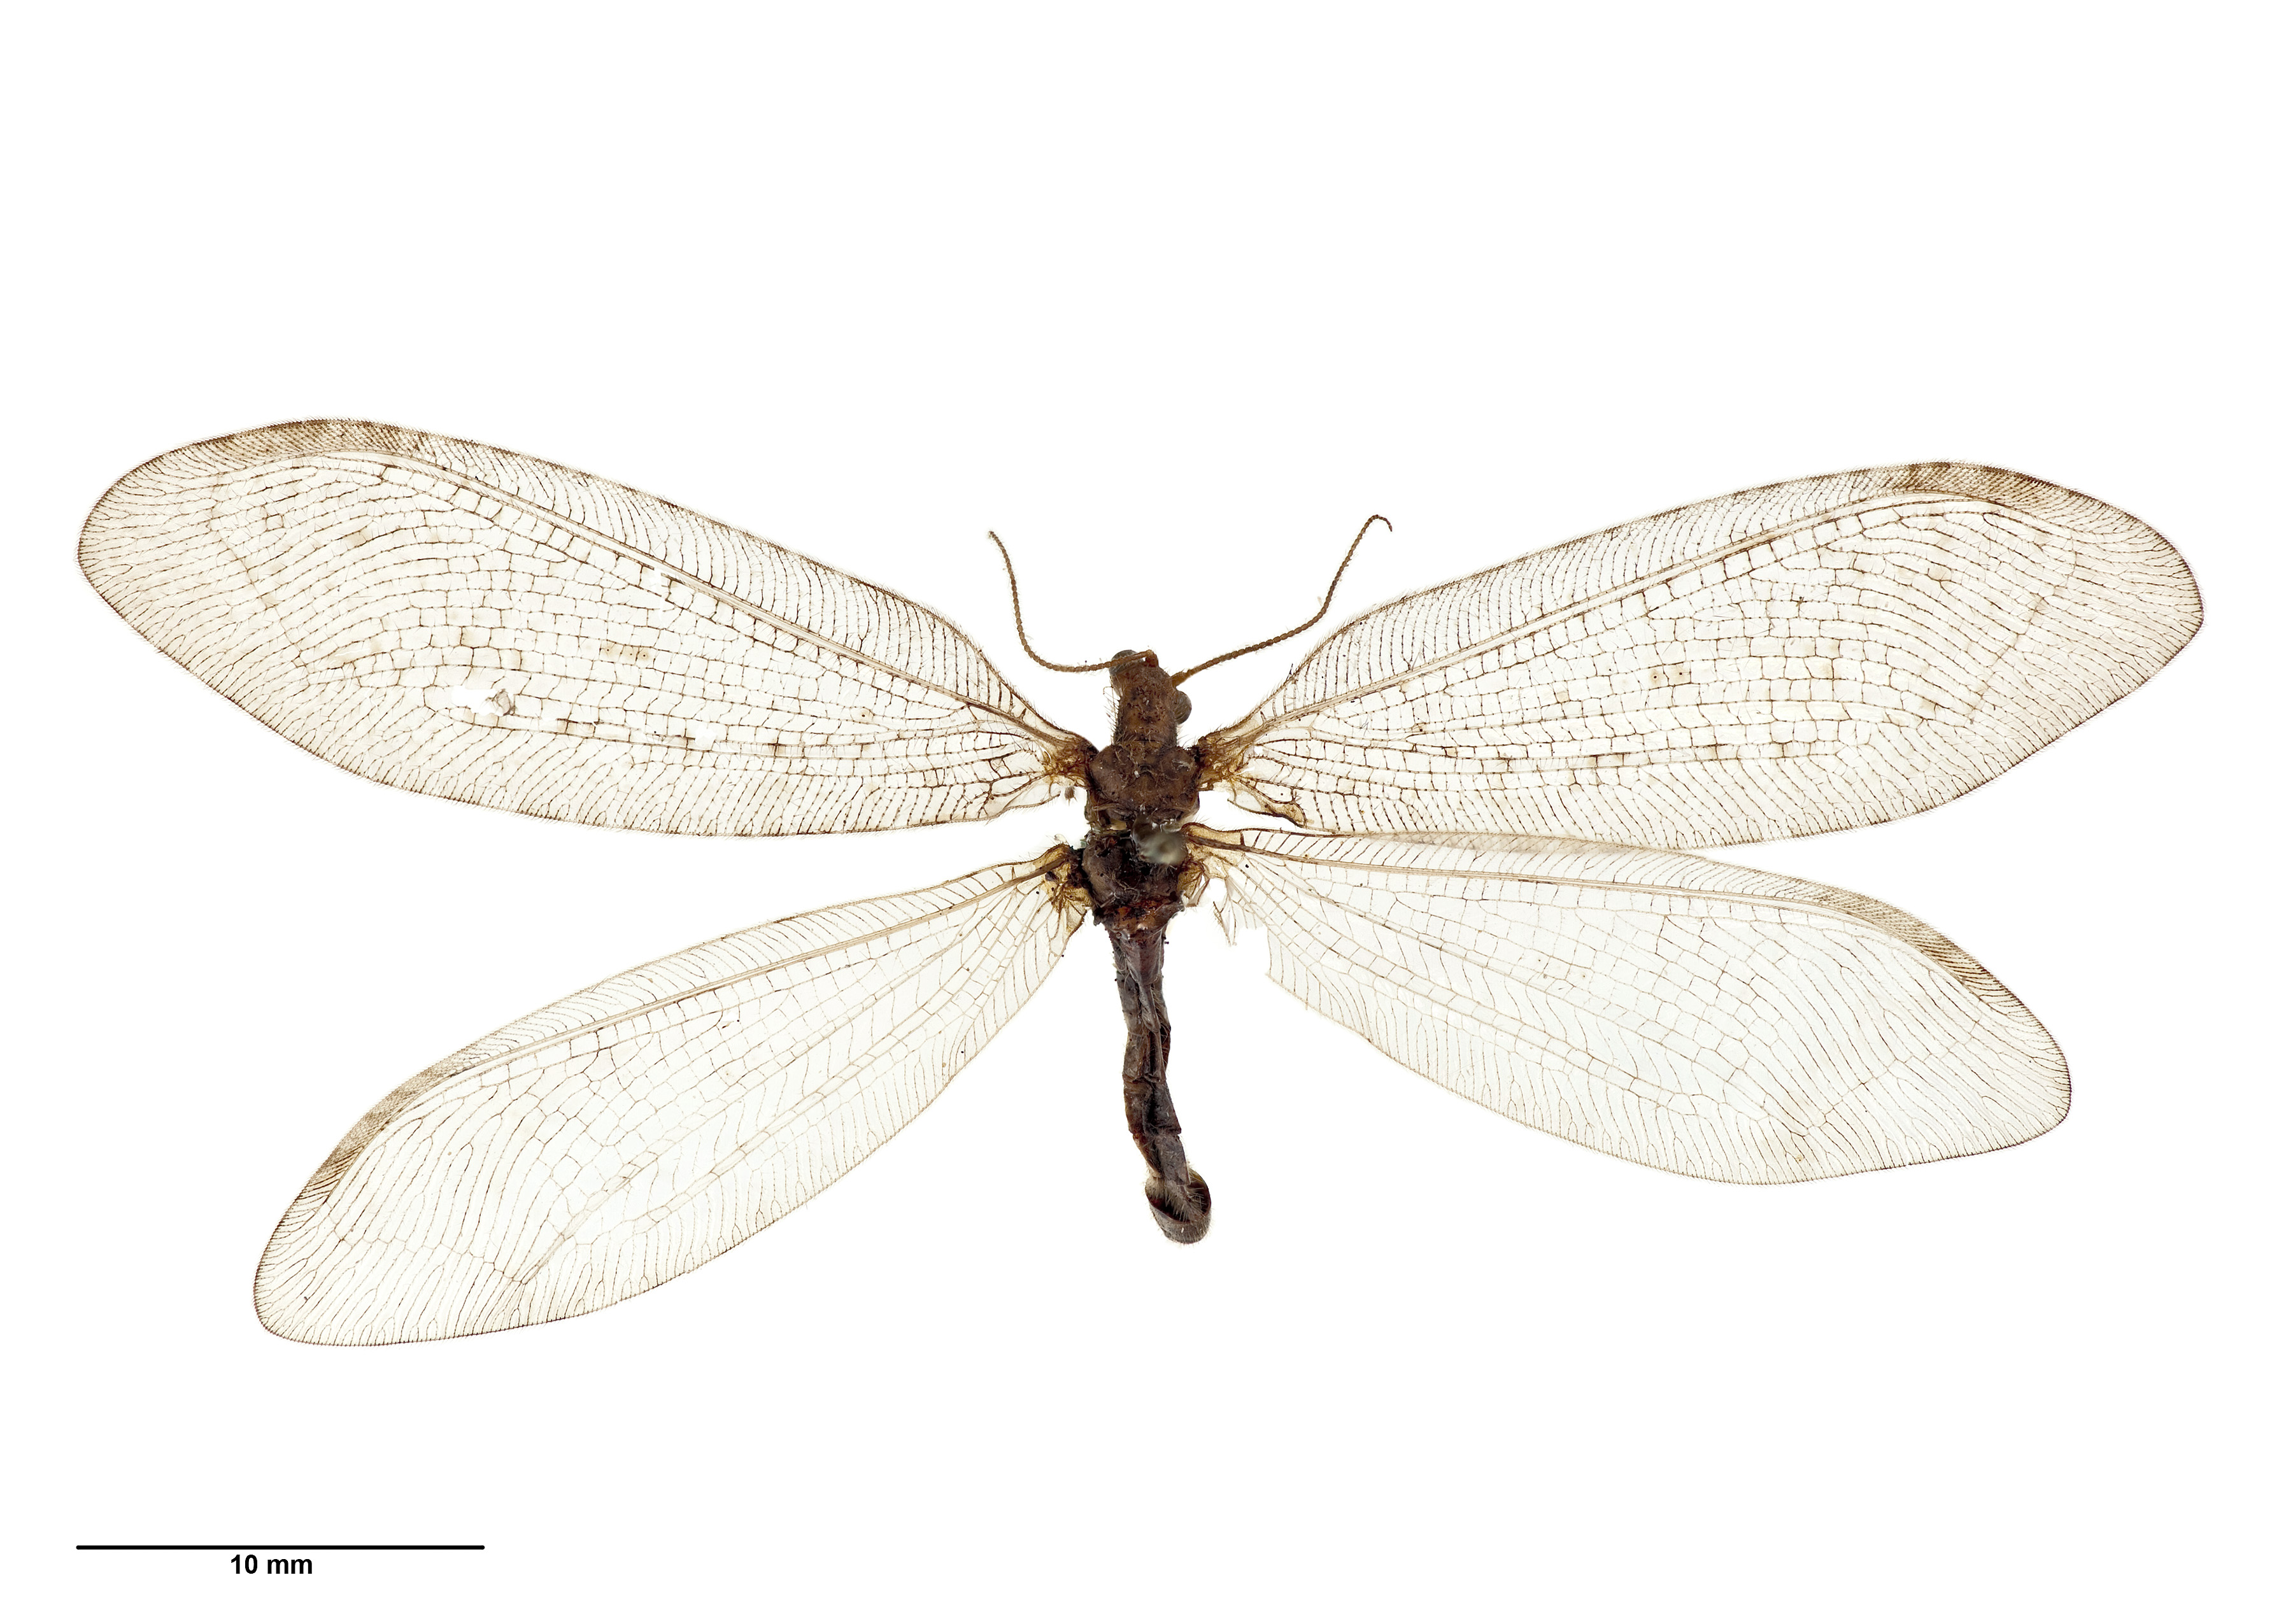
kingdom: Animalia
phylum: Arthropoda
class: Insecta
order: Neuroptera
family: Osmylidae
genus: Kempynus
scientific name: Kempynus latiusculus
